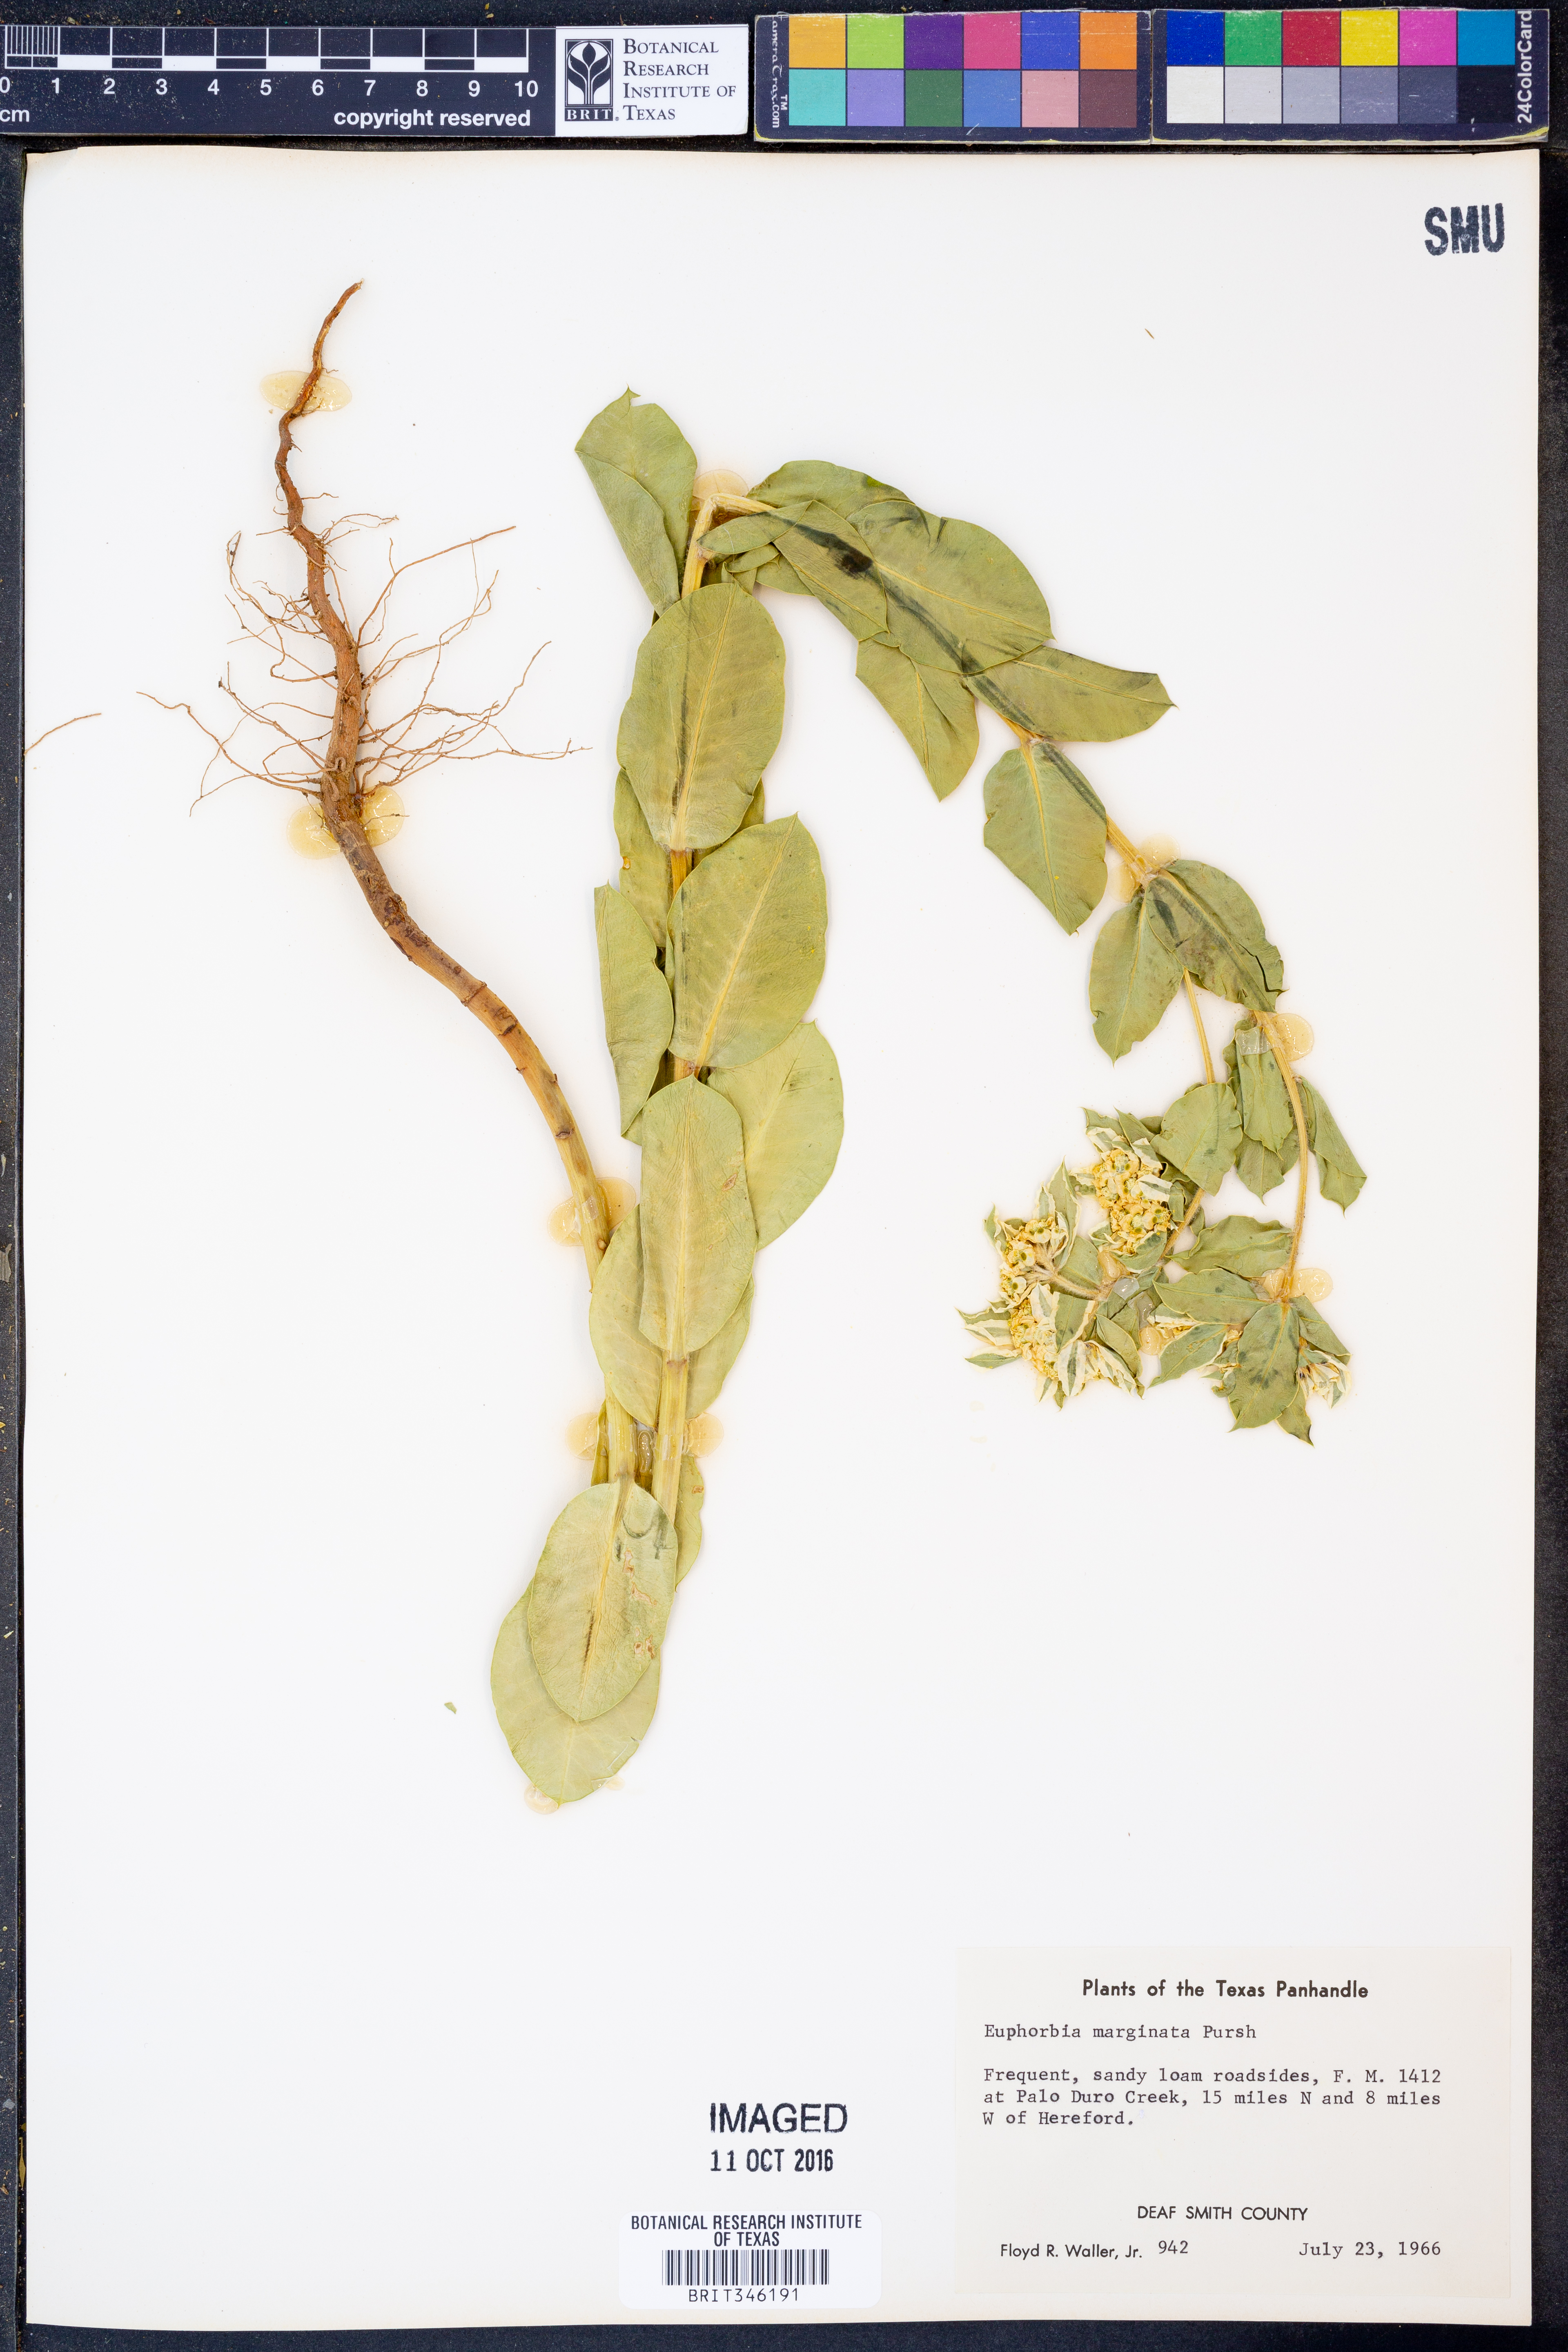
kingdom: Plantae
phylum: Tracheophyta
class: Magnoliopsida
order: Malpighiales
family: Euphorbiaceae
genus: Euphorbia
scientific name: Euphorbia marginata
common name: Ghostweed
